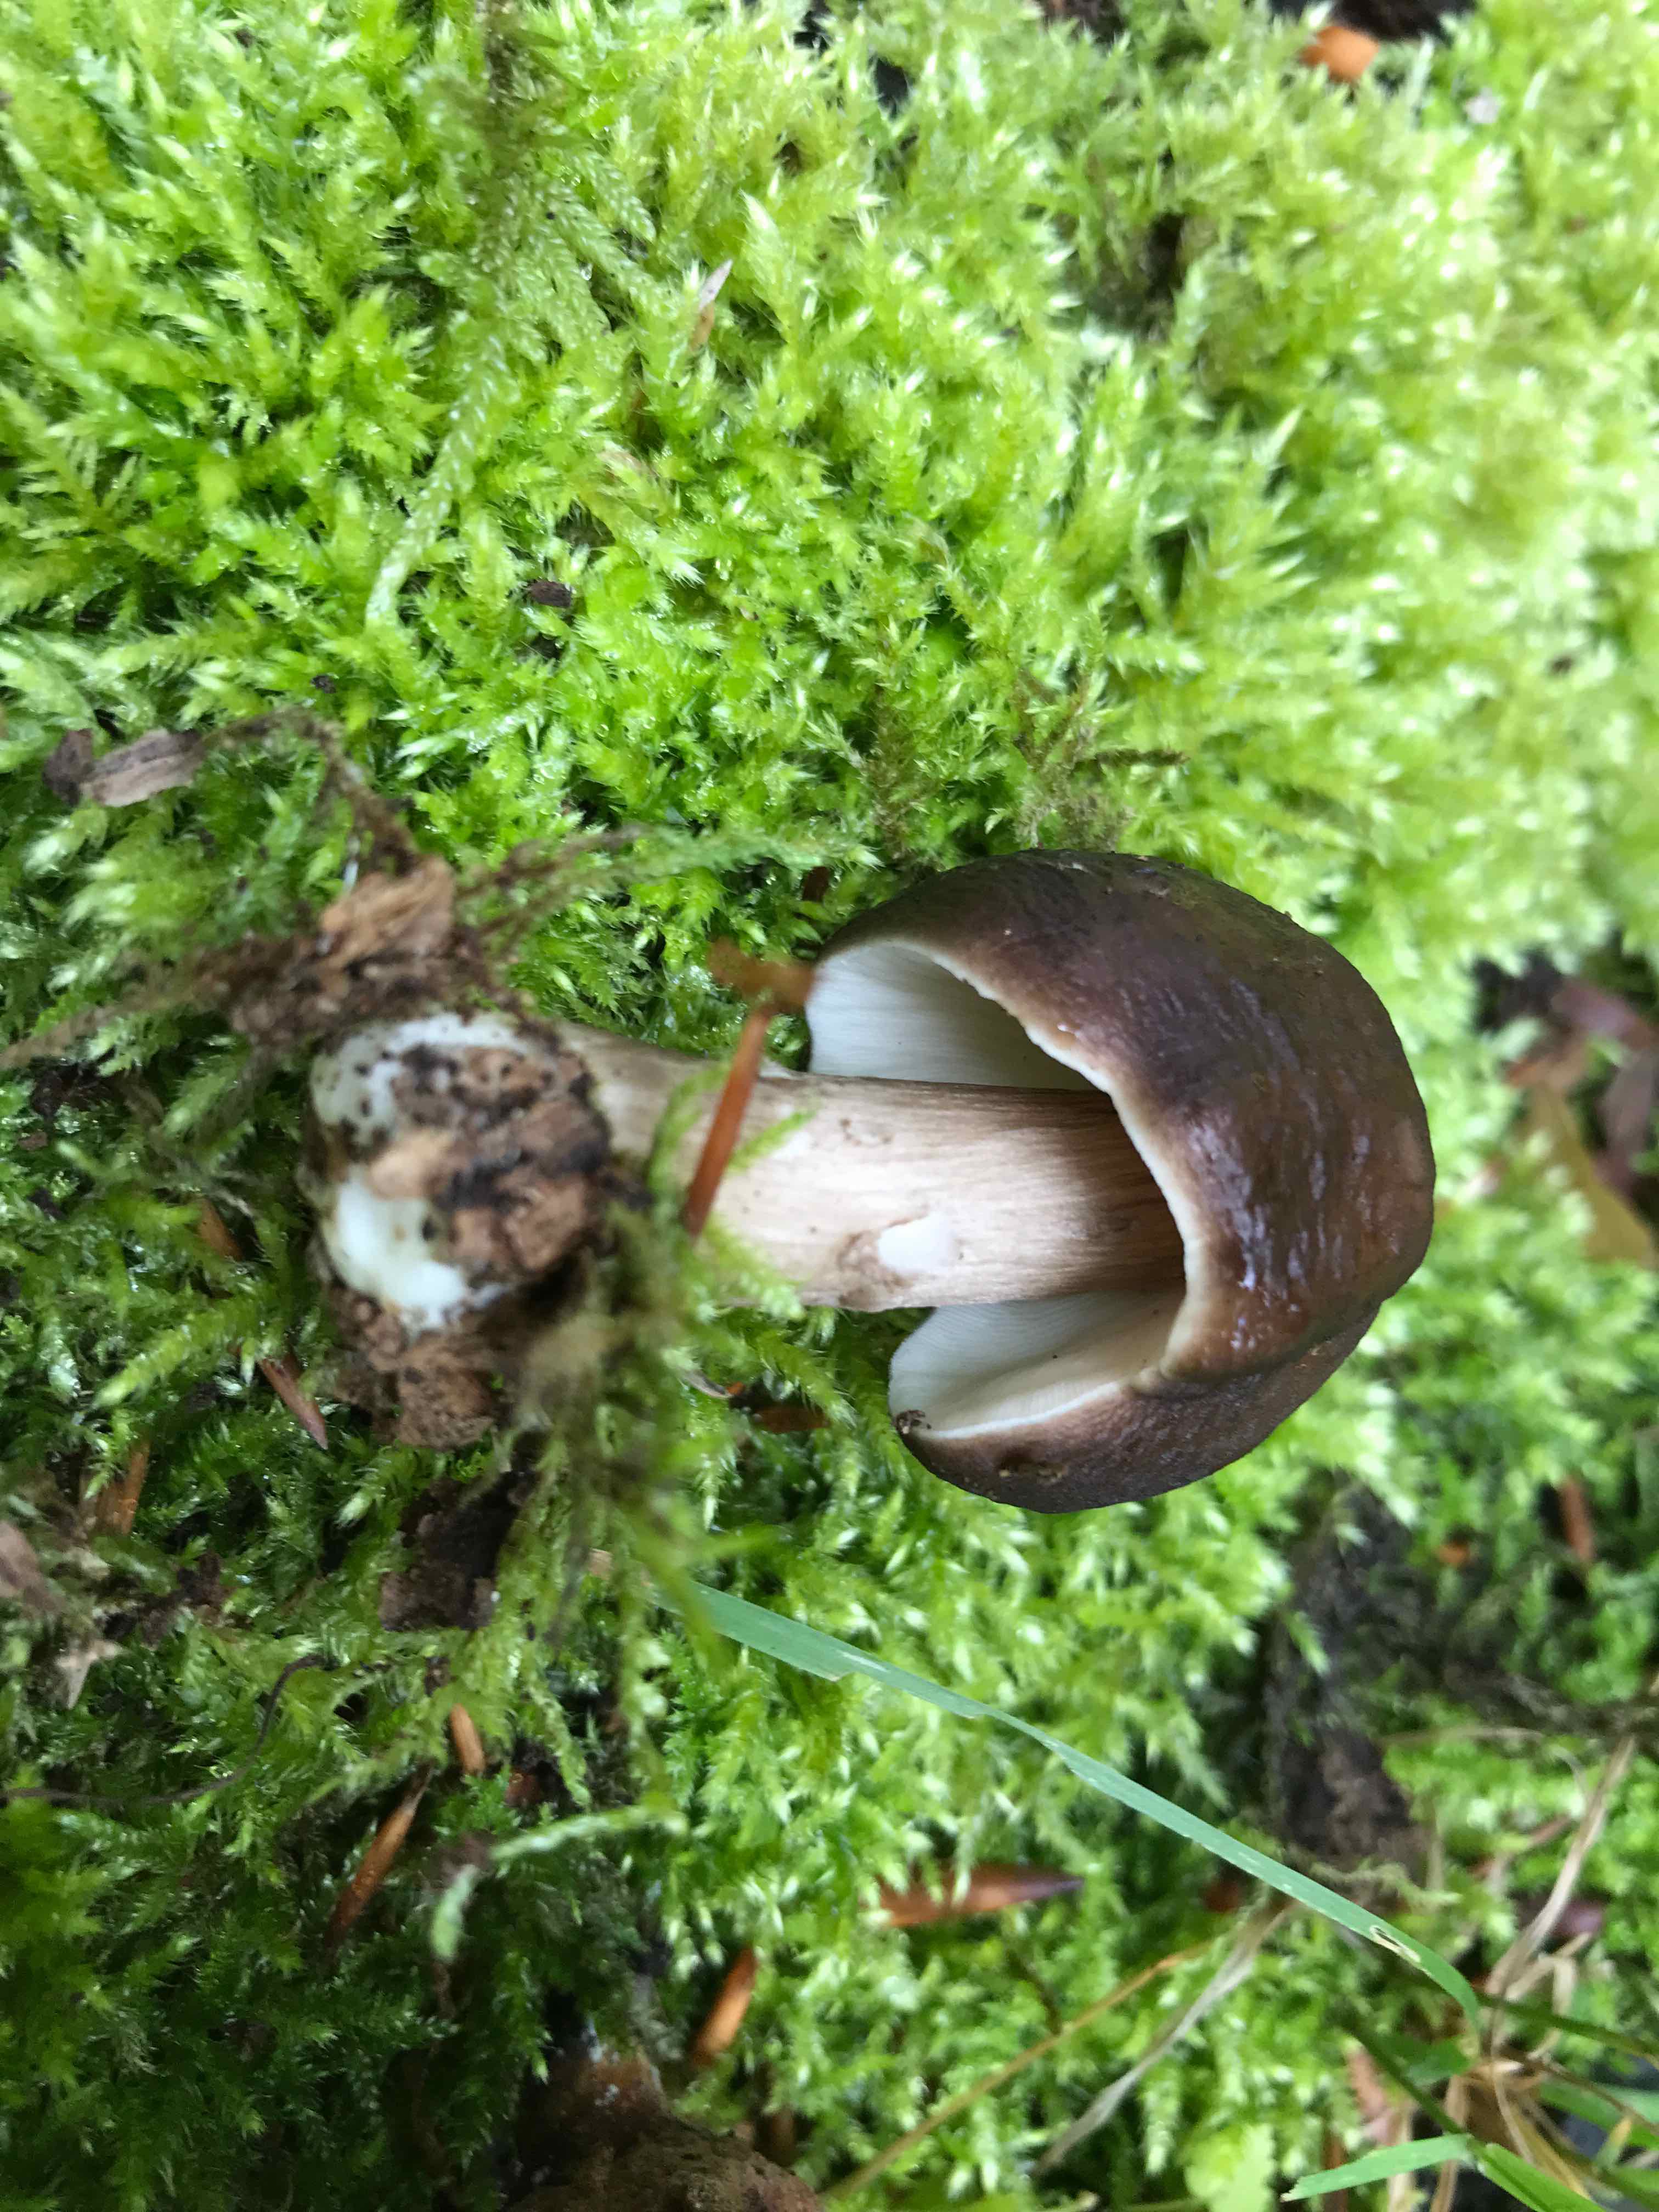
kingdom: Fungi
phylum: Basidiomycota
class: Agaricomycetes
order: Agaricales
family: Pluteaceae
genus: Pluteus
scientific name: Pluteus cervinus
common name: sodfarvet skærmhat
